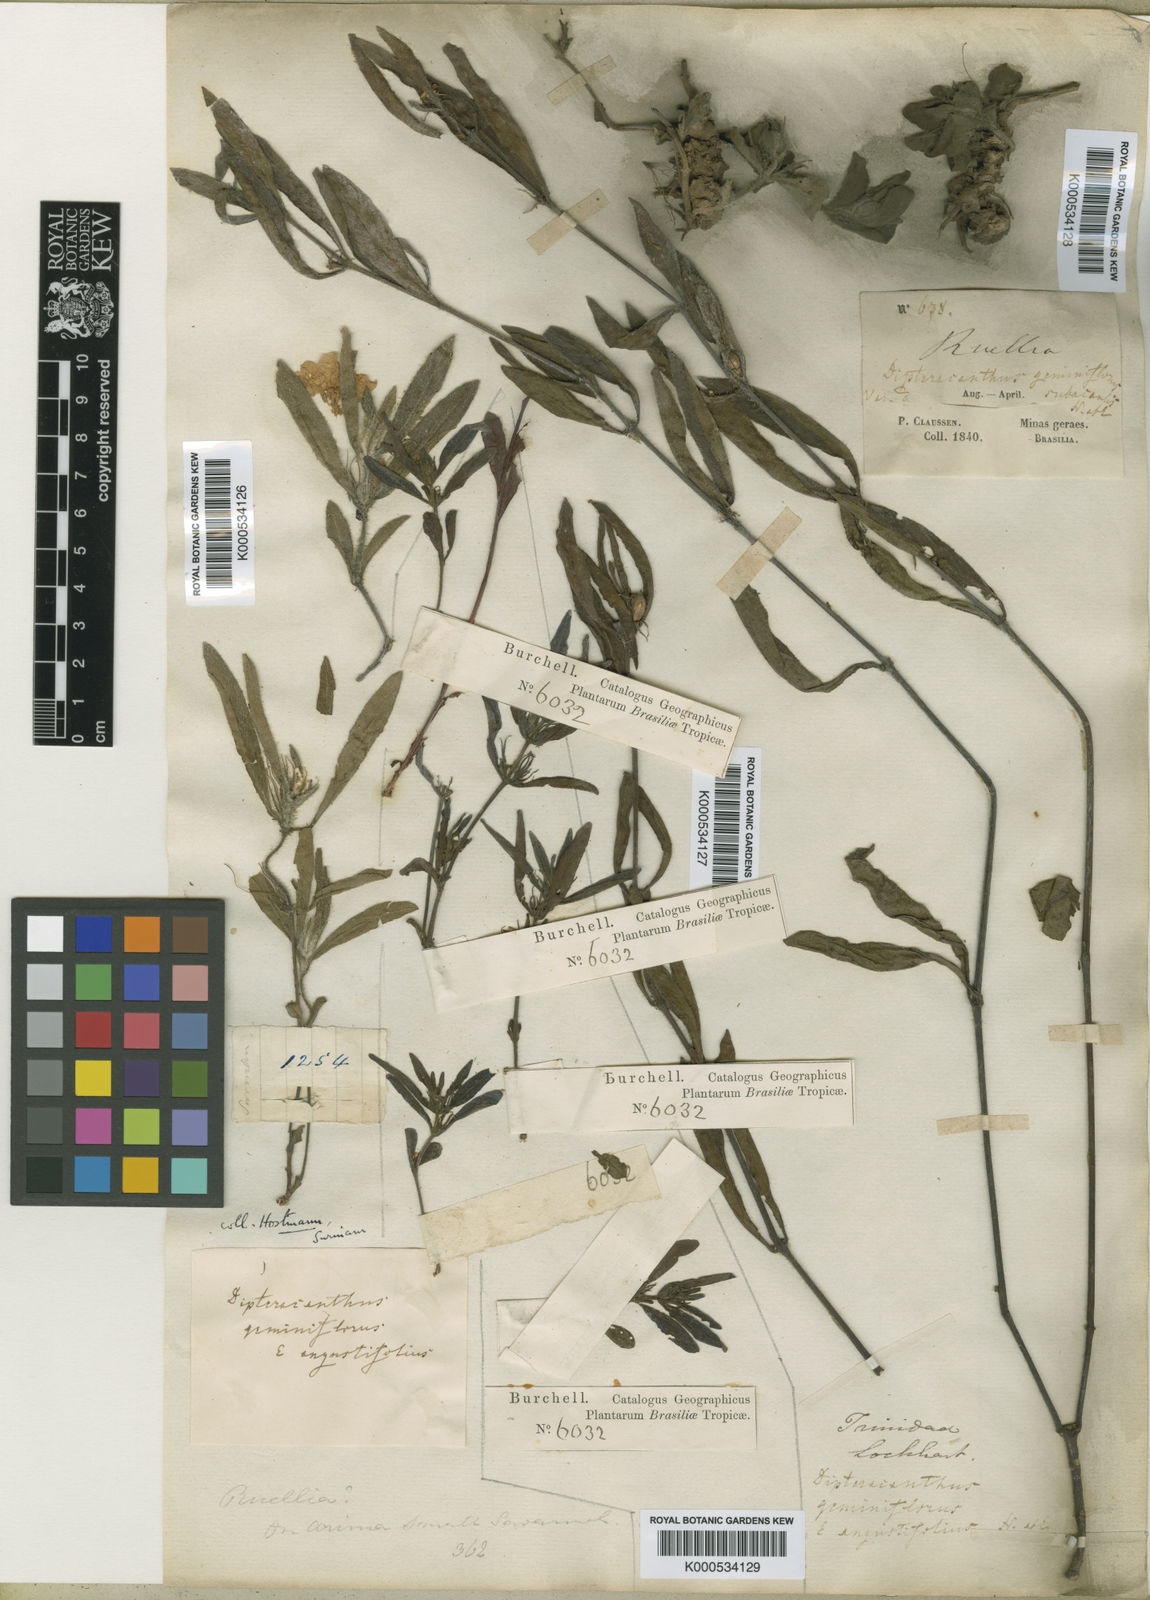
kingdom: Plantae
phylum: Tracheophyta
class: Magnoliopsida
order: Lamiales
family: Acanthaceae
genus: Ruellia
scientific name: Ruellia geminiflora
